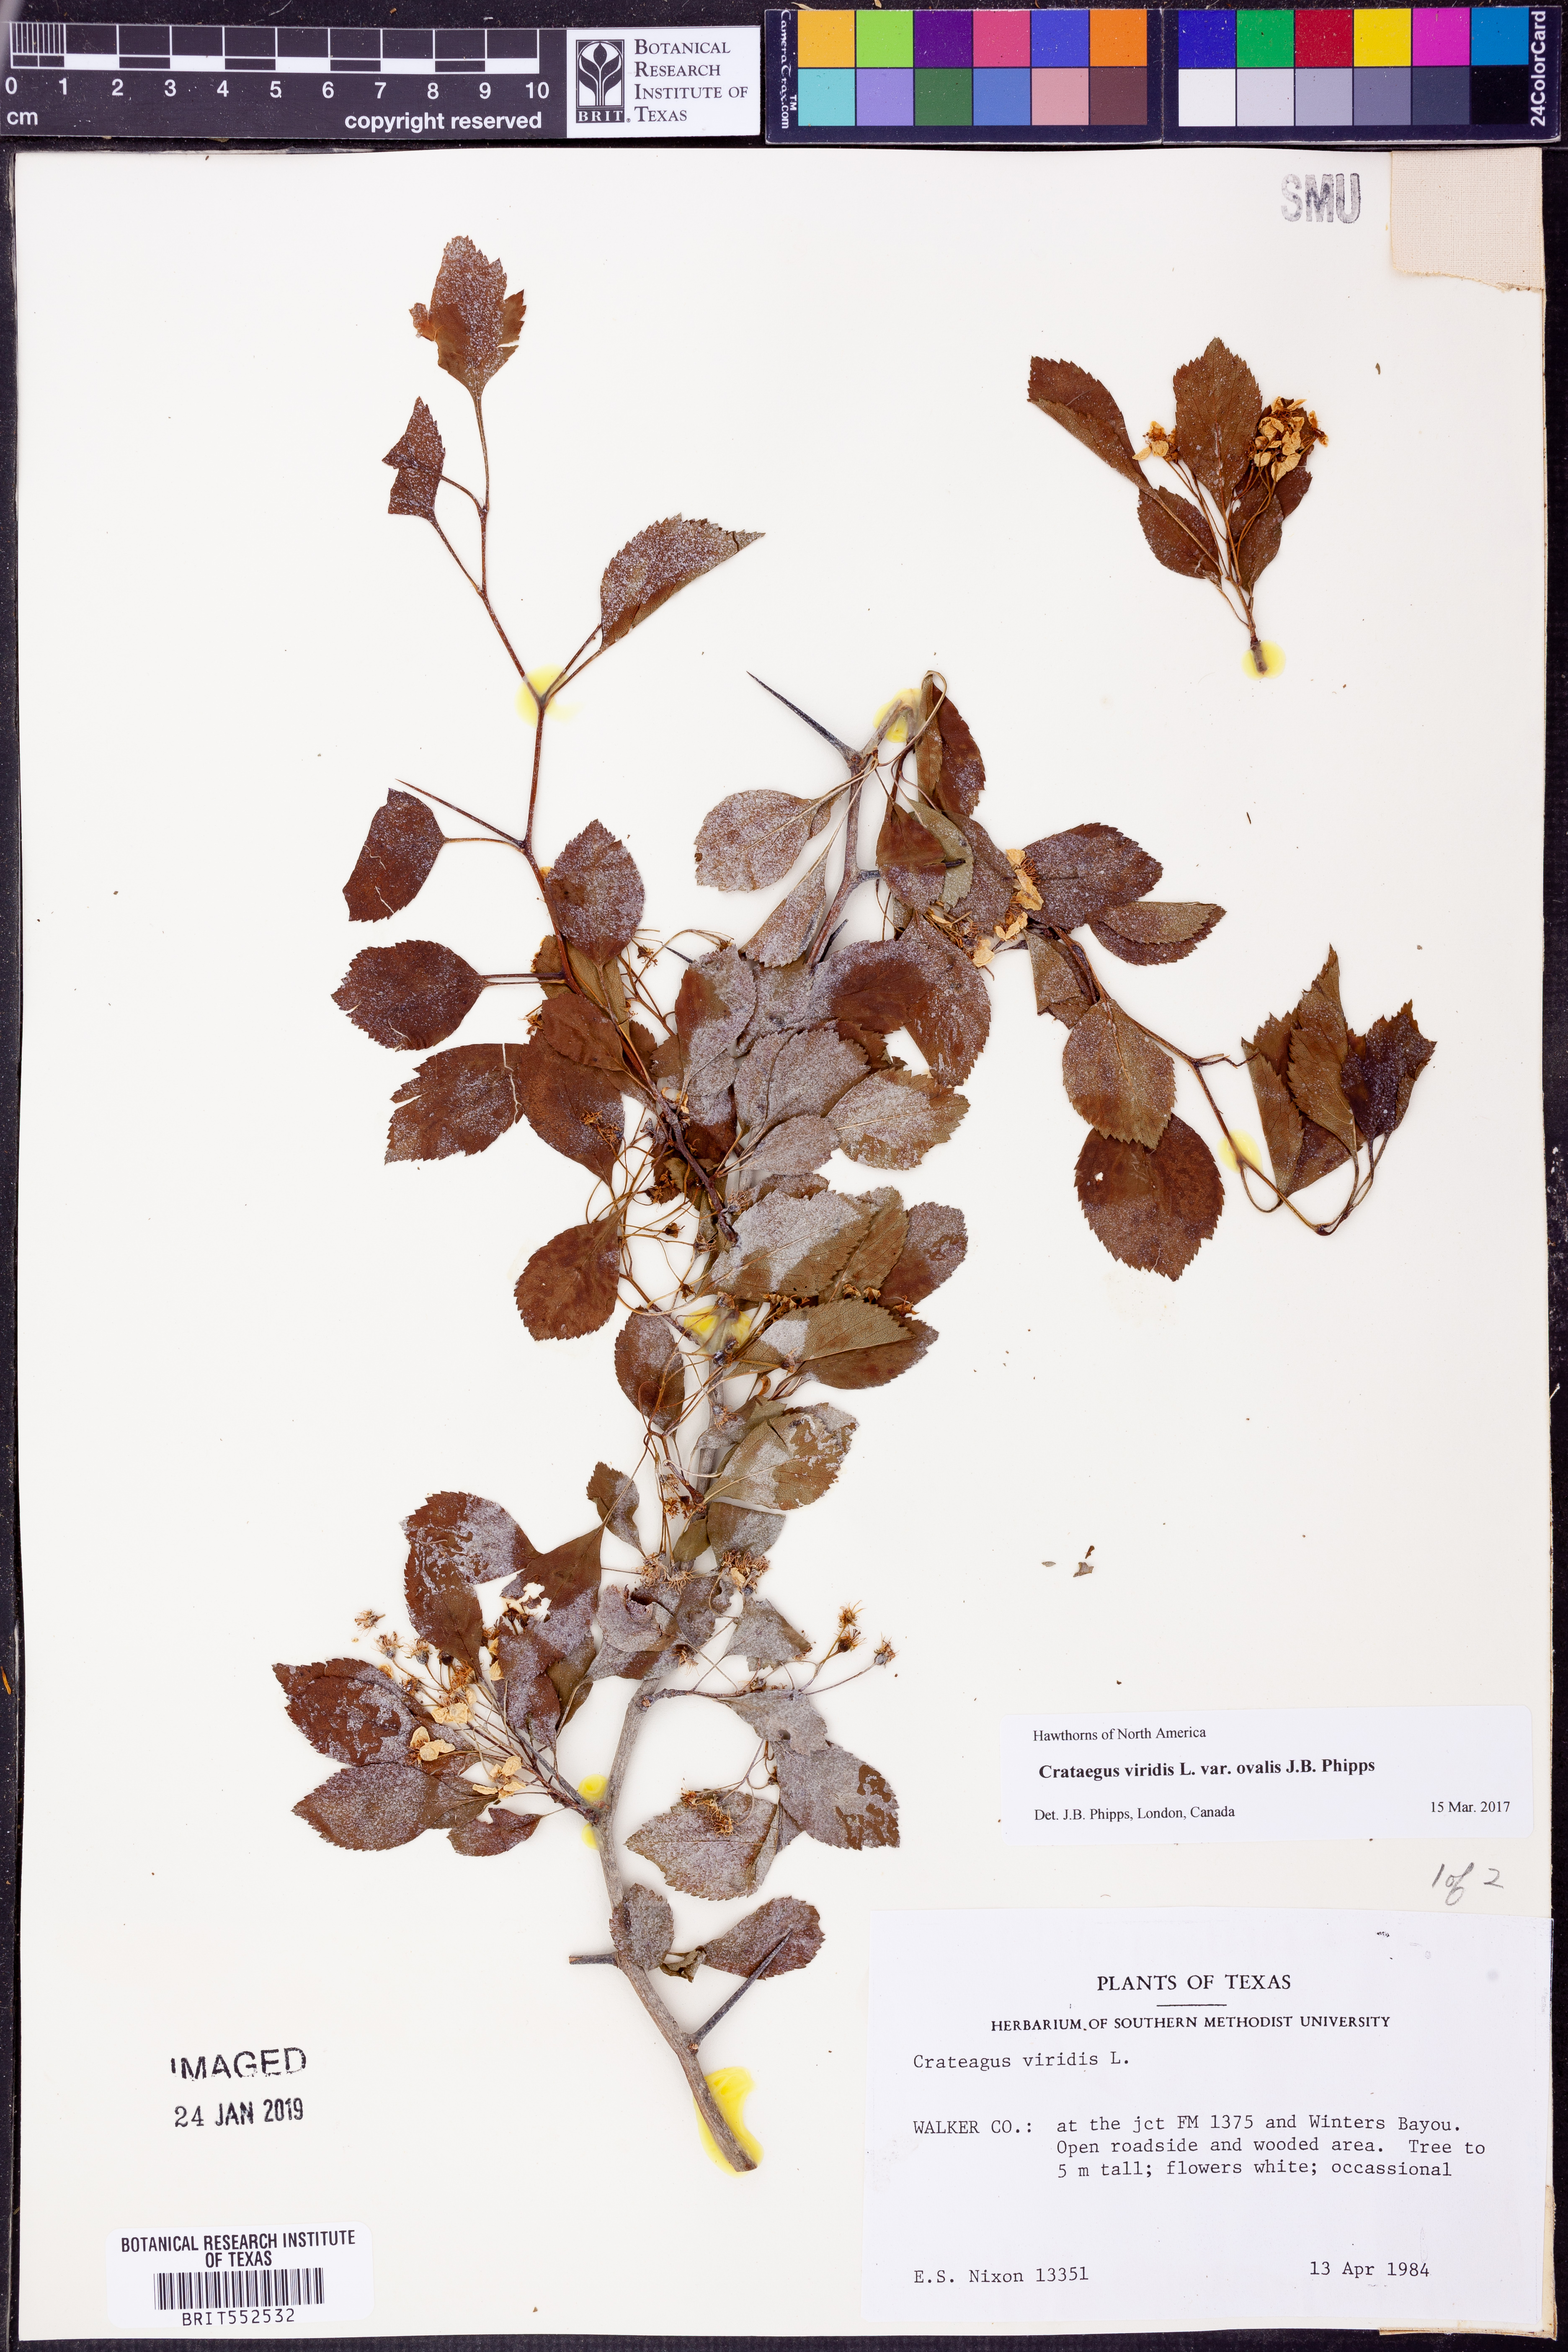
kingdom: Plantae
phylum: Tracheophyta
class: Magnoliopsida
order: Rosales
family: Rosaceae
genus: Crataegus
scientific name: Crataegus viridis
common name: Southernthorn
